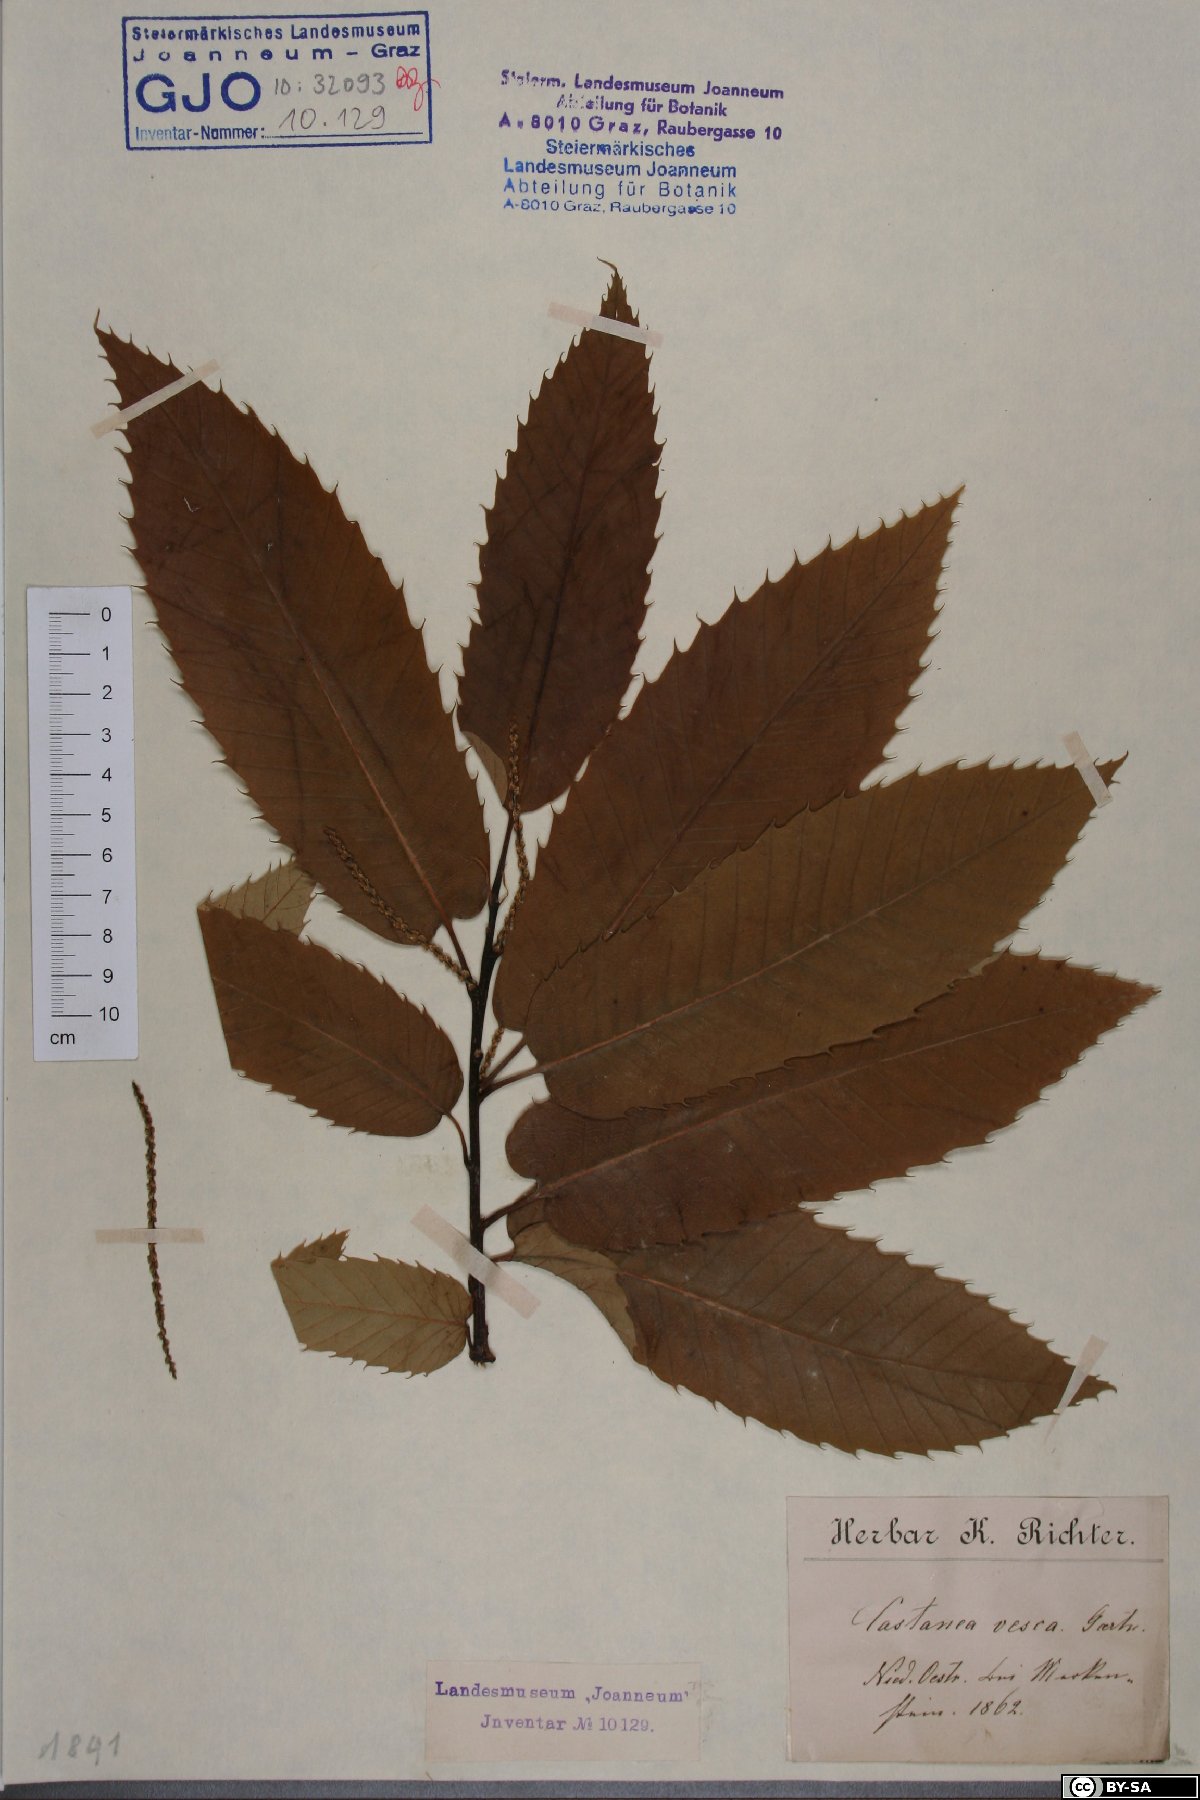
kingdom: Plantae
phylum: Tracheophyta
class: Magnoliopsida
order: Fagales
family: Fagaceae
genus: Castanea
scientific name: Castanea sativa
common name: Sweet chestnut
